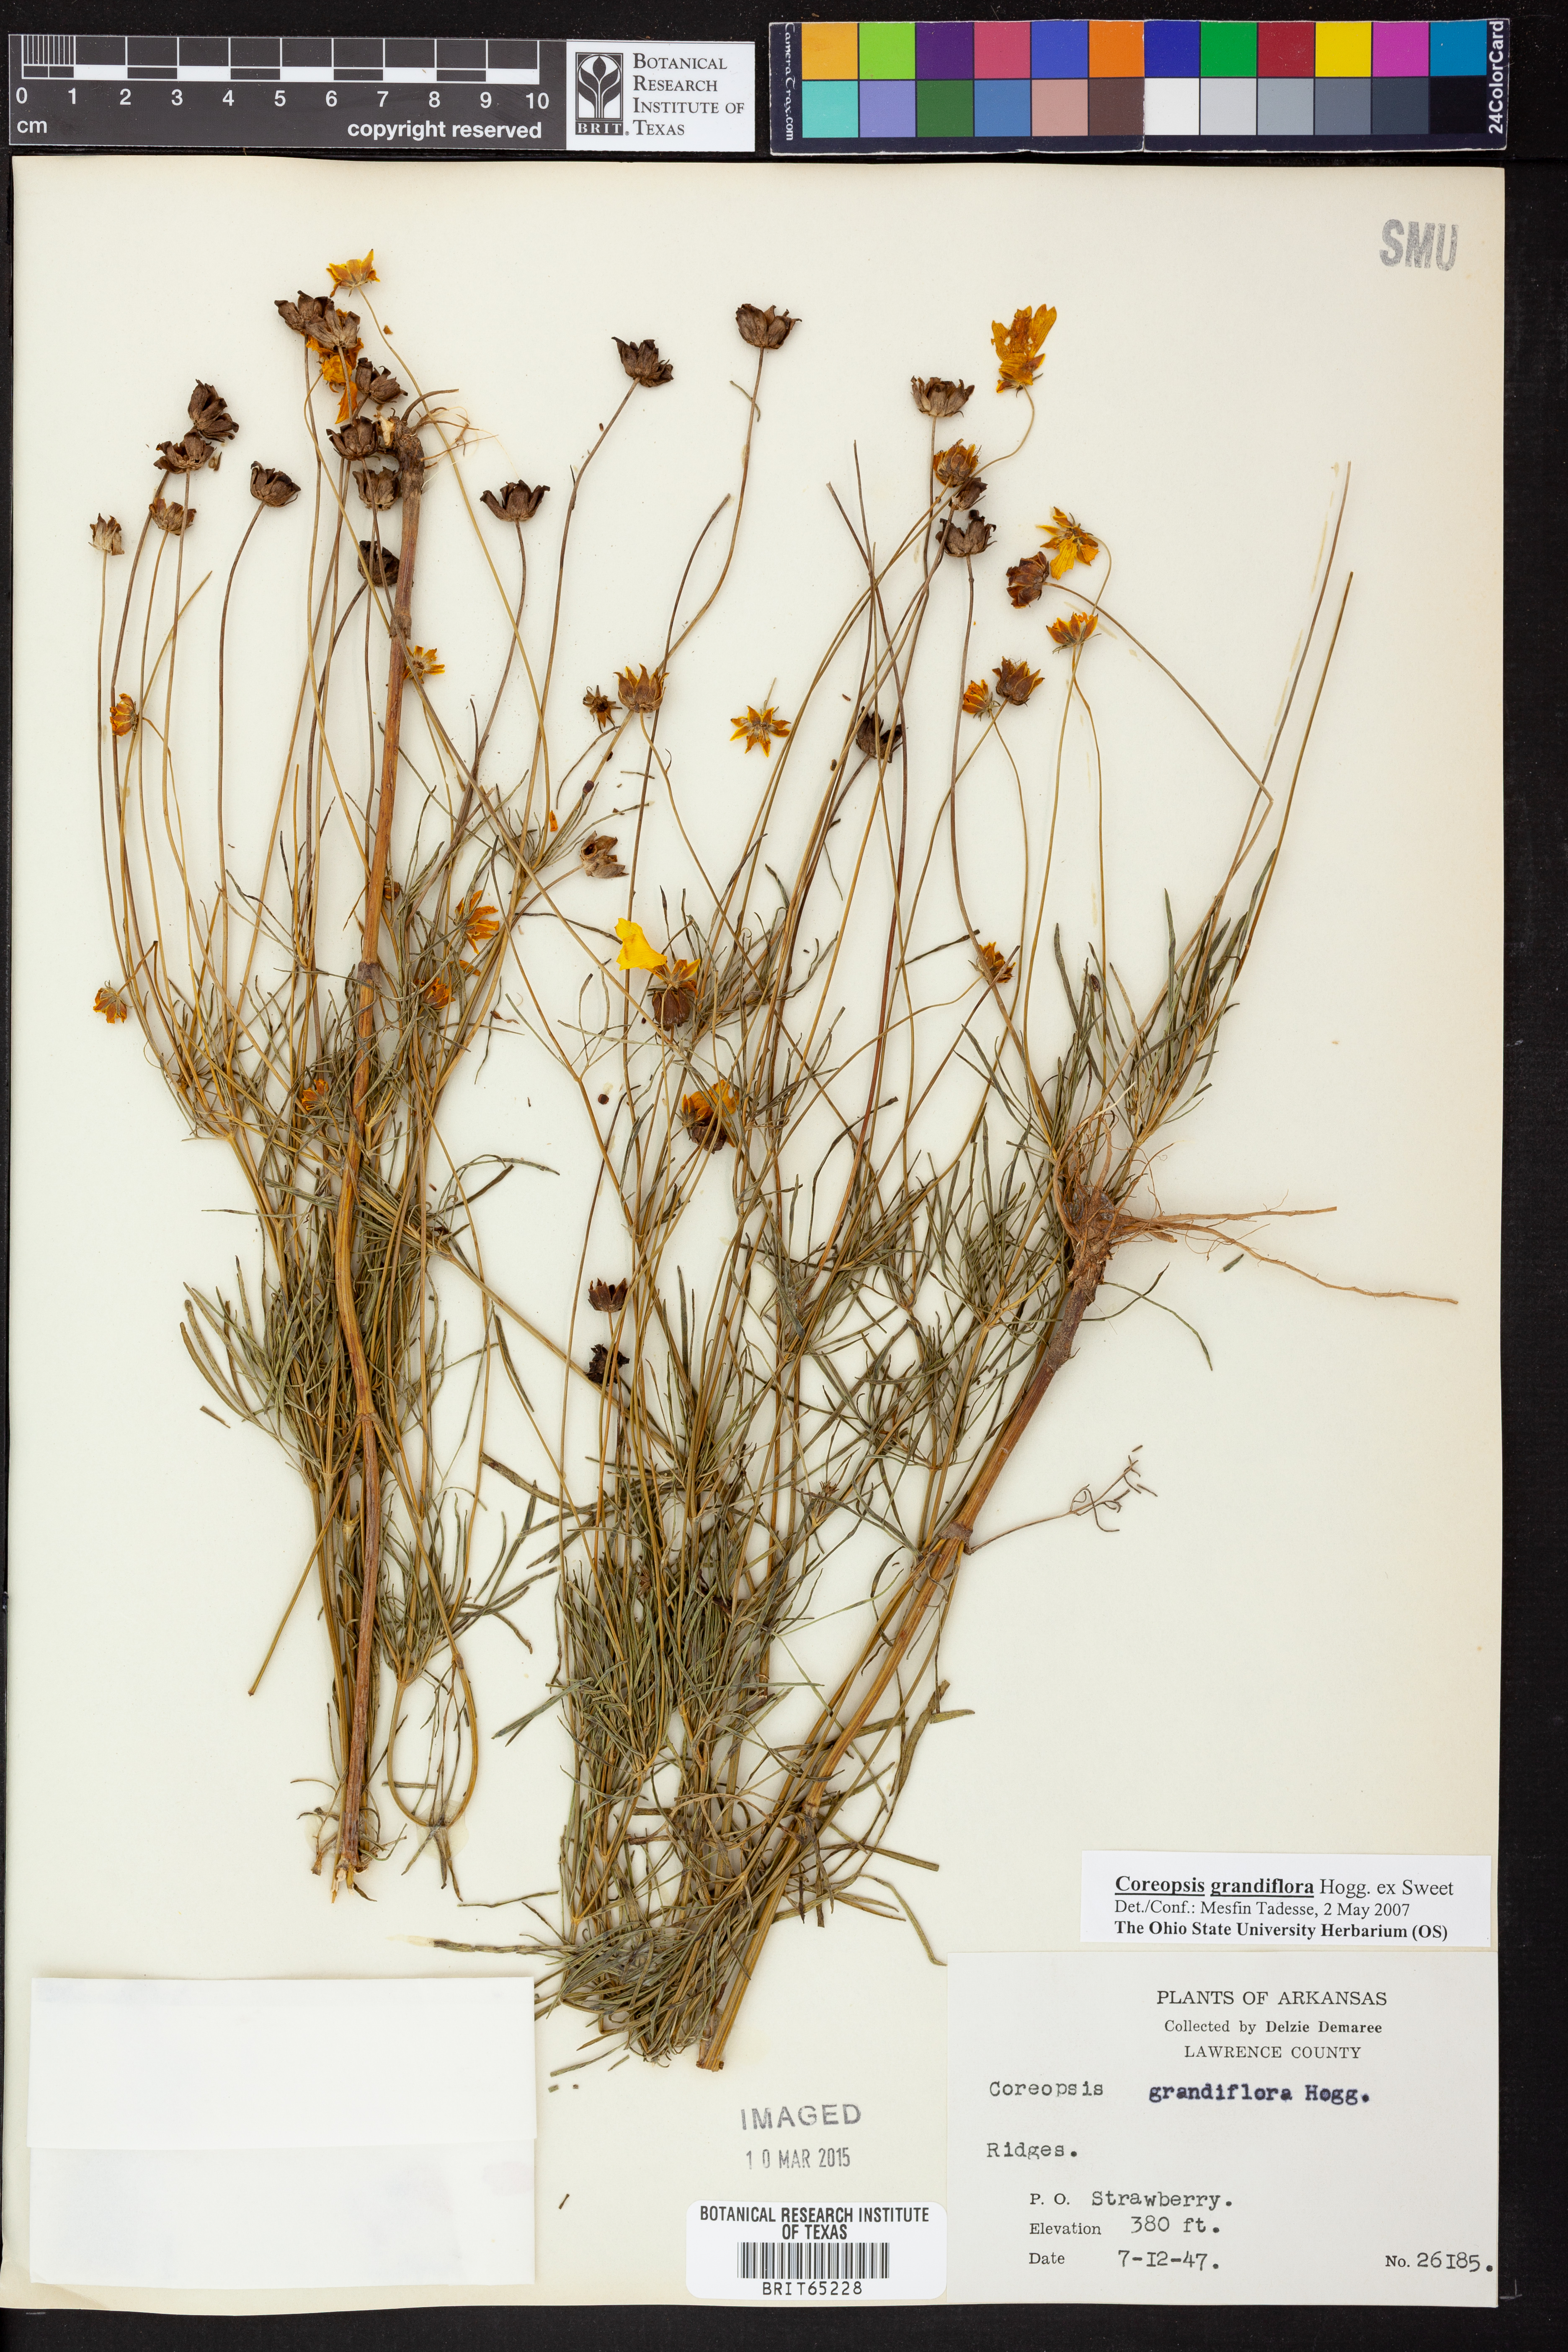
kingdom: Plantae
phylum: Tracheophyta
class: Magnoliopsida
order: Asterales
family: Asteraceae
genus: Coreopsis
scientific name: Coreopsis grandiflora
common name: Large-flowered tickseed
